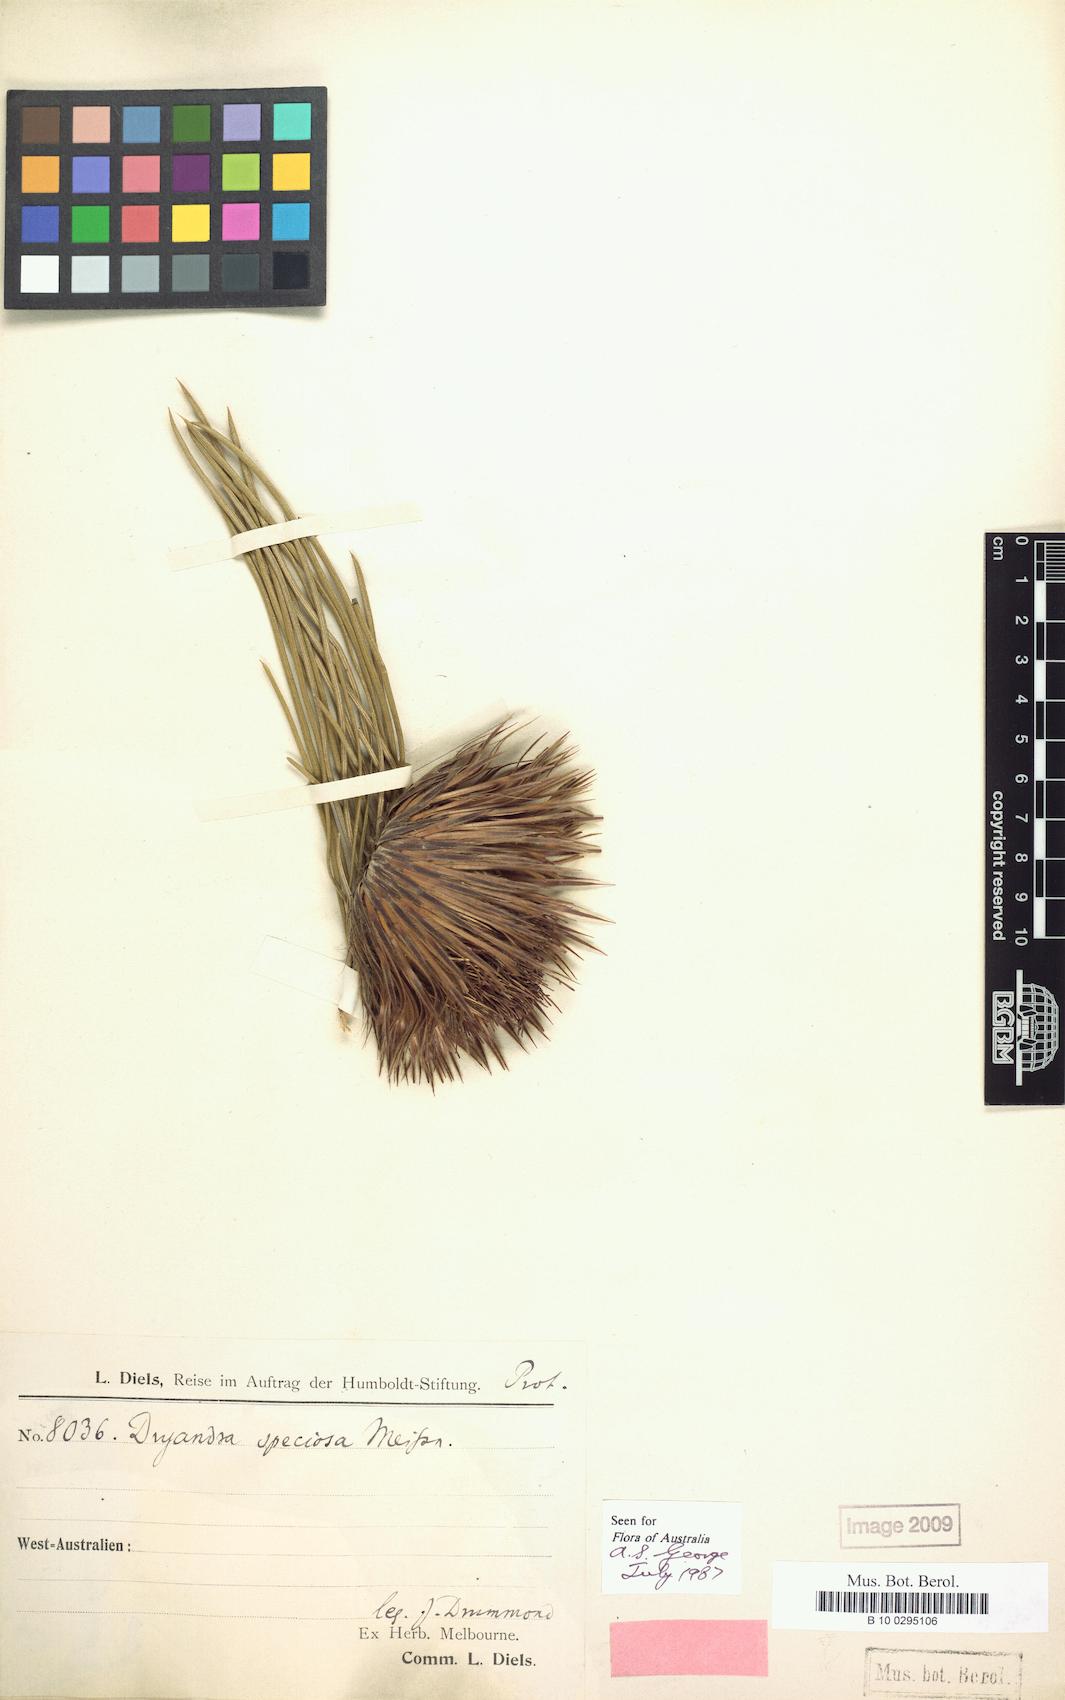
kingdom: Plantae
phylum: Tracheophyta
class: Magnoliopsida
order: Proteales
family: Proteaceae
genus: Banksia
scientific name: Banksia splendida
